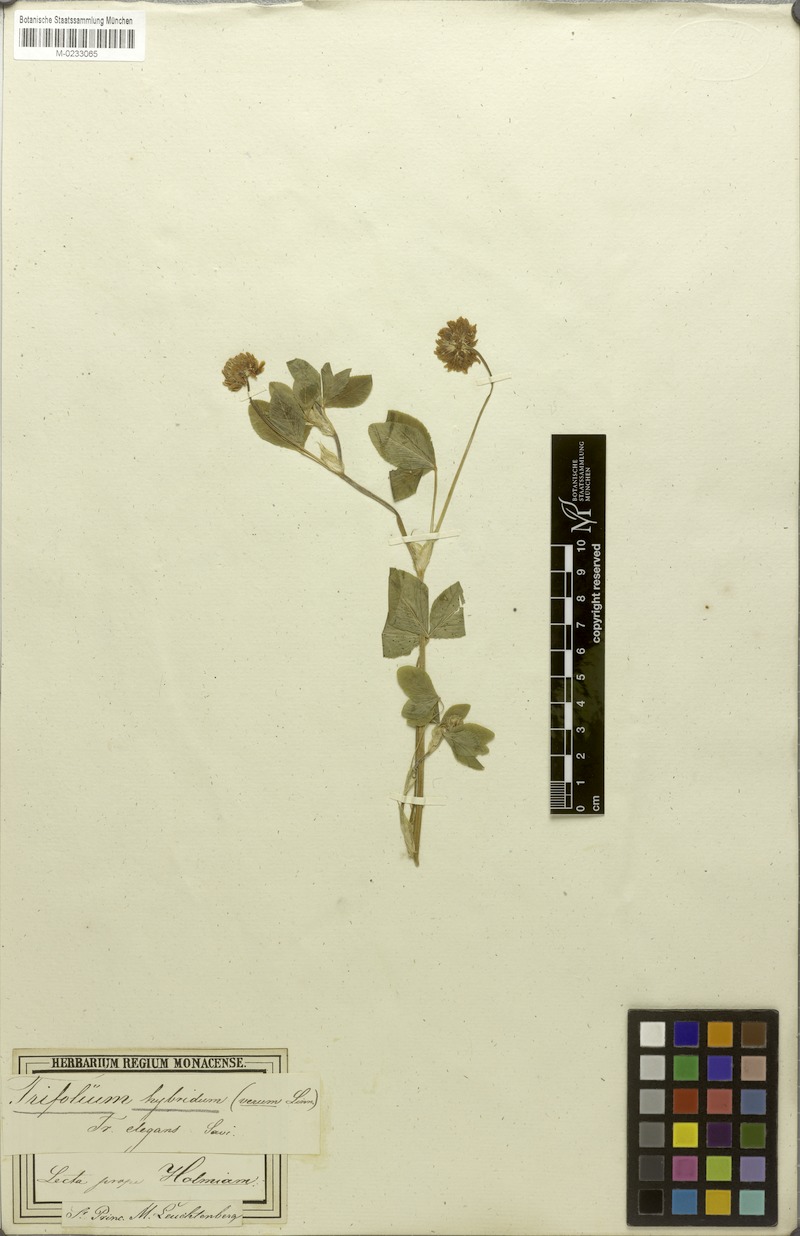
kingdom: Plantae
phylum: Tracheophyta
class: Magnoliopsida
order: Fabales
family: Fabaceae
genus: Trifolium
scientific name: Trifolium hybridum
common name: Alsike clover
